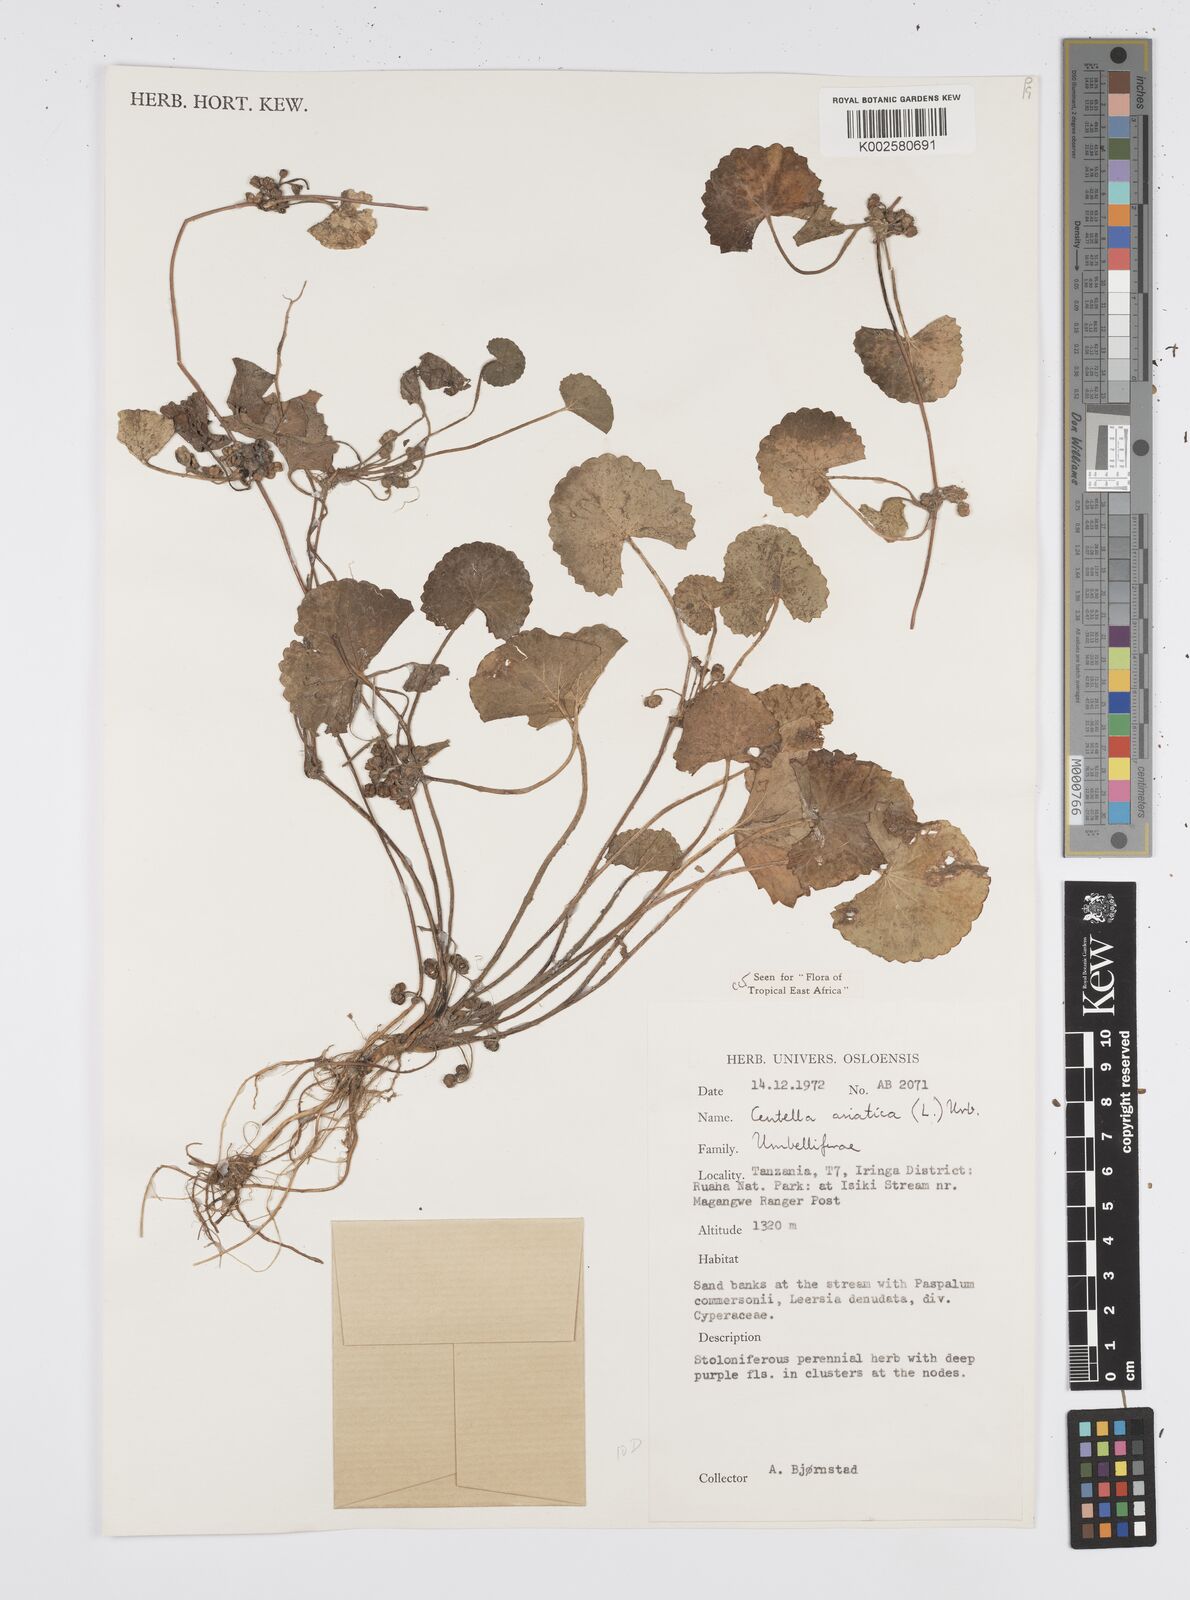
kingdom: Plantae
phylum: Tracheophyta
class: Magnoliopsida
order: Apiales
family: Apiaceae
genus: Centella
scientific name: Centella asiatica
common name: Spadeleaf
